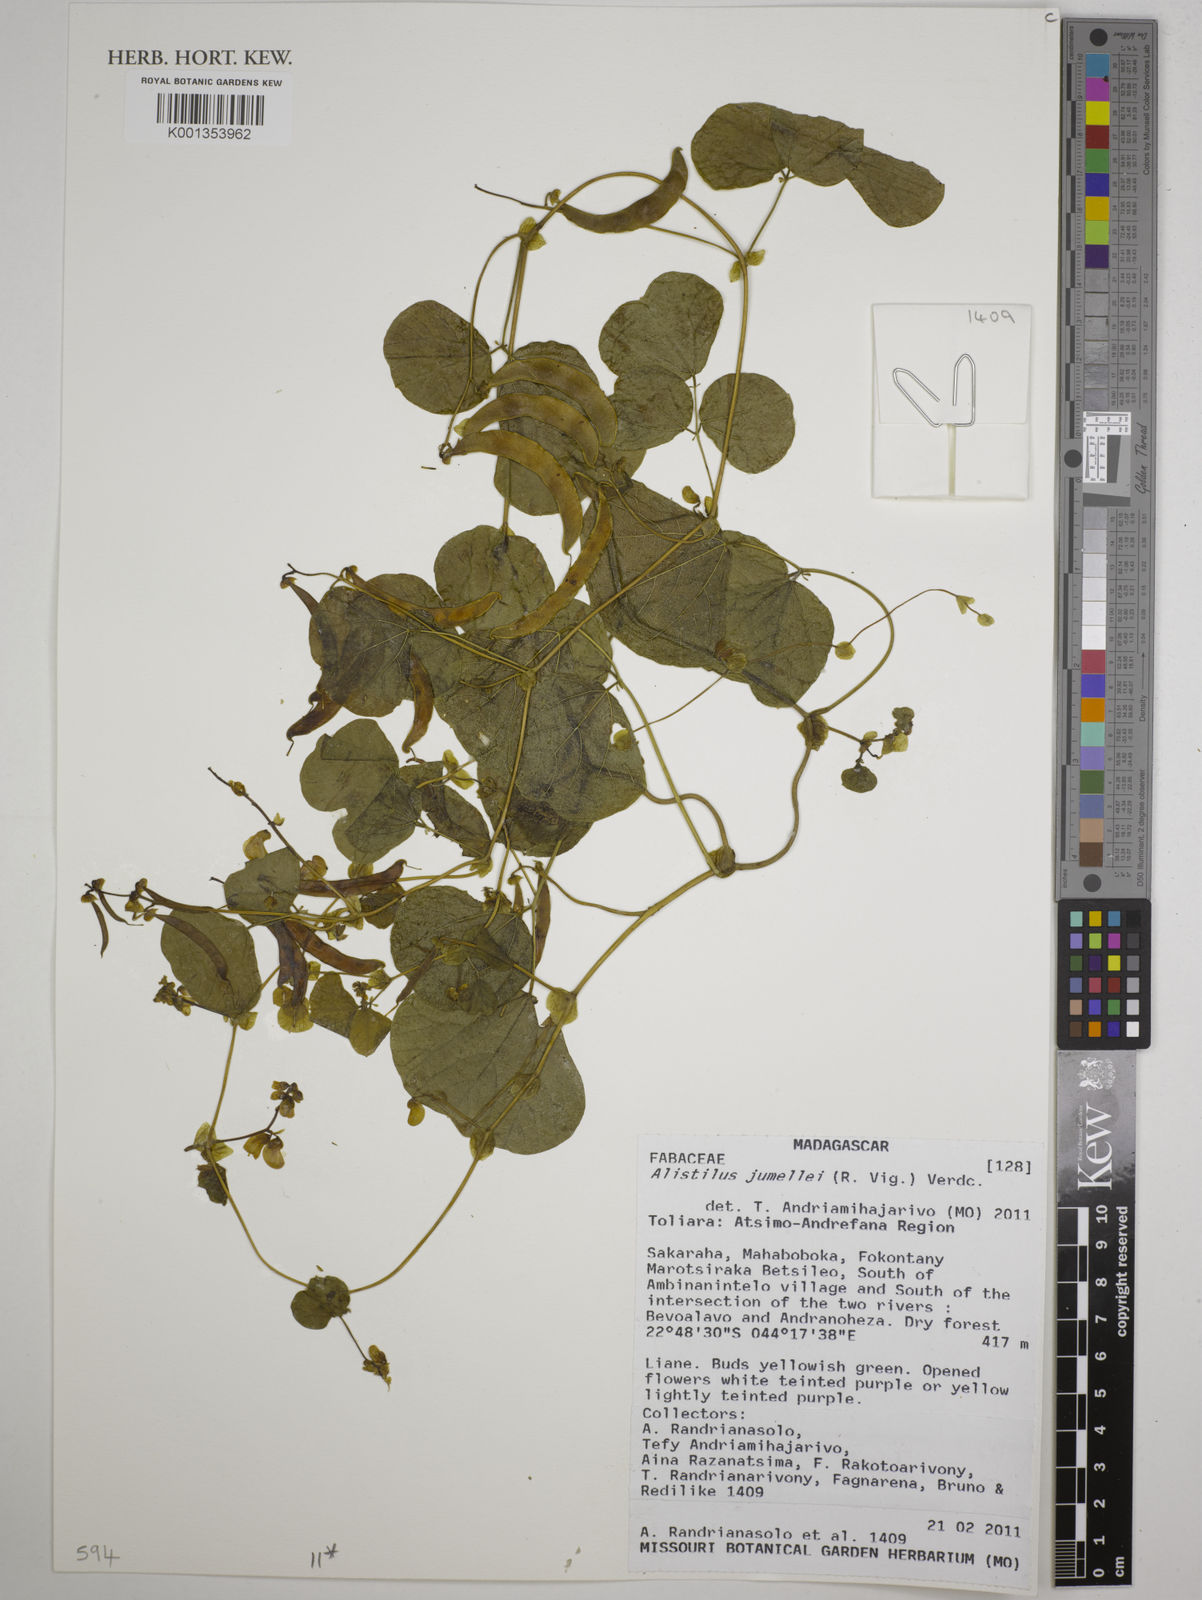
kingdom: Plantae
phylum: Tracheophyta
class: Magnoliopsida
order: Fabales
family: Fabaceae
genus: Alistilus
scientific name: Alistilus jumellei
